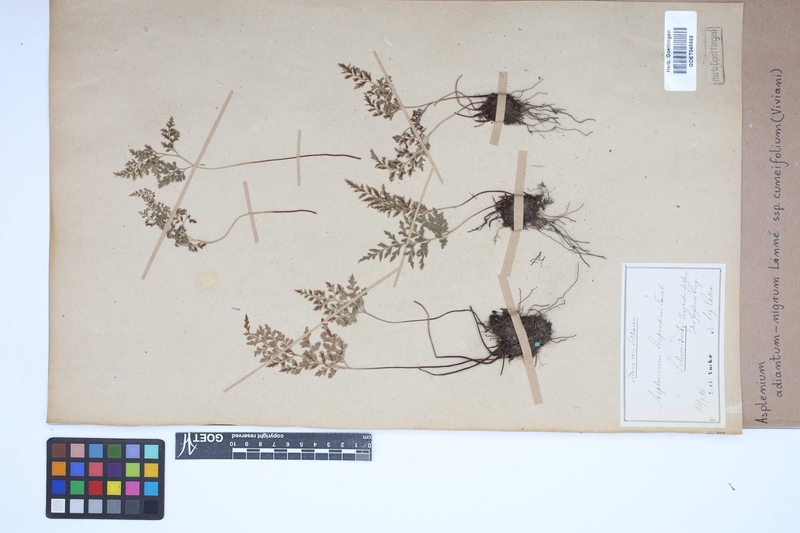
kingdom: Plantae
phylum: Tracheophyta
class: Polypodiopsida
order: Polypodiales
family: Aspleniaceae
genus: Asplenium
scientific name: Asplenium cuneifolium
